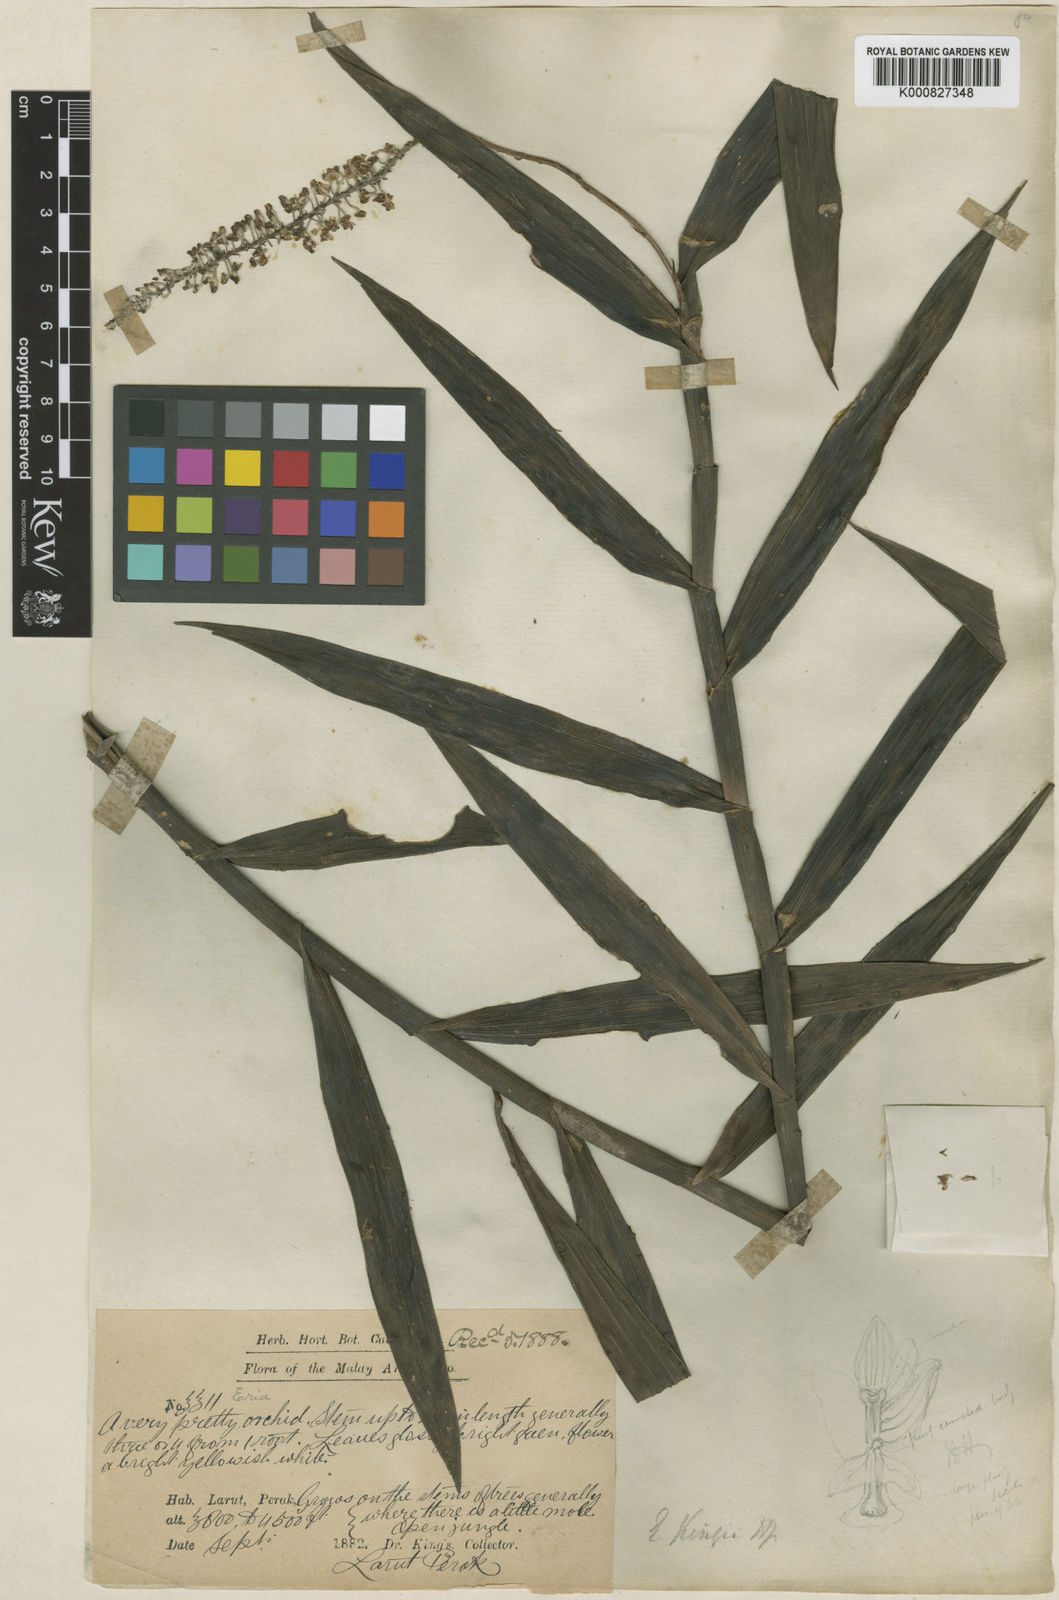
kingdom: Plantae
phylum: Tracheophyta
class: Liliopsida
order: Asparagales
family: Orchidaceae
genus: Mycaranthes
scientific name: Mycaranthes oblitterata
